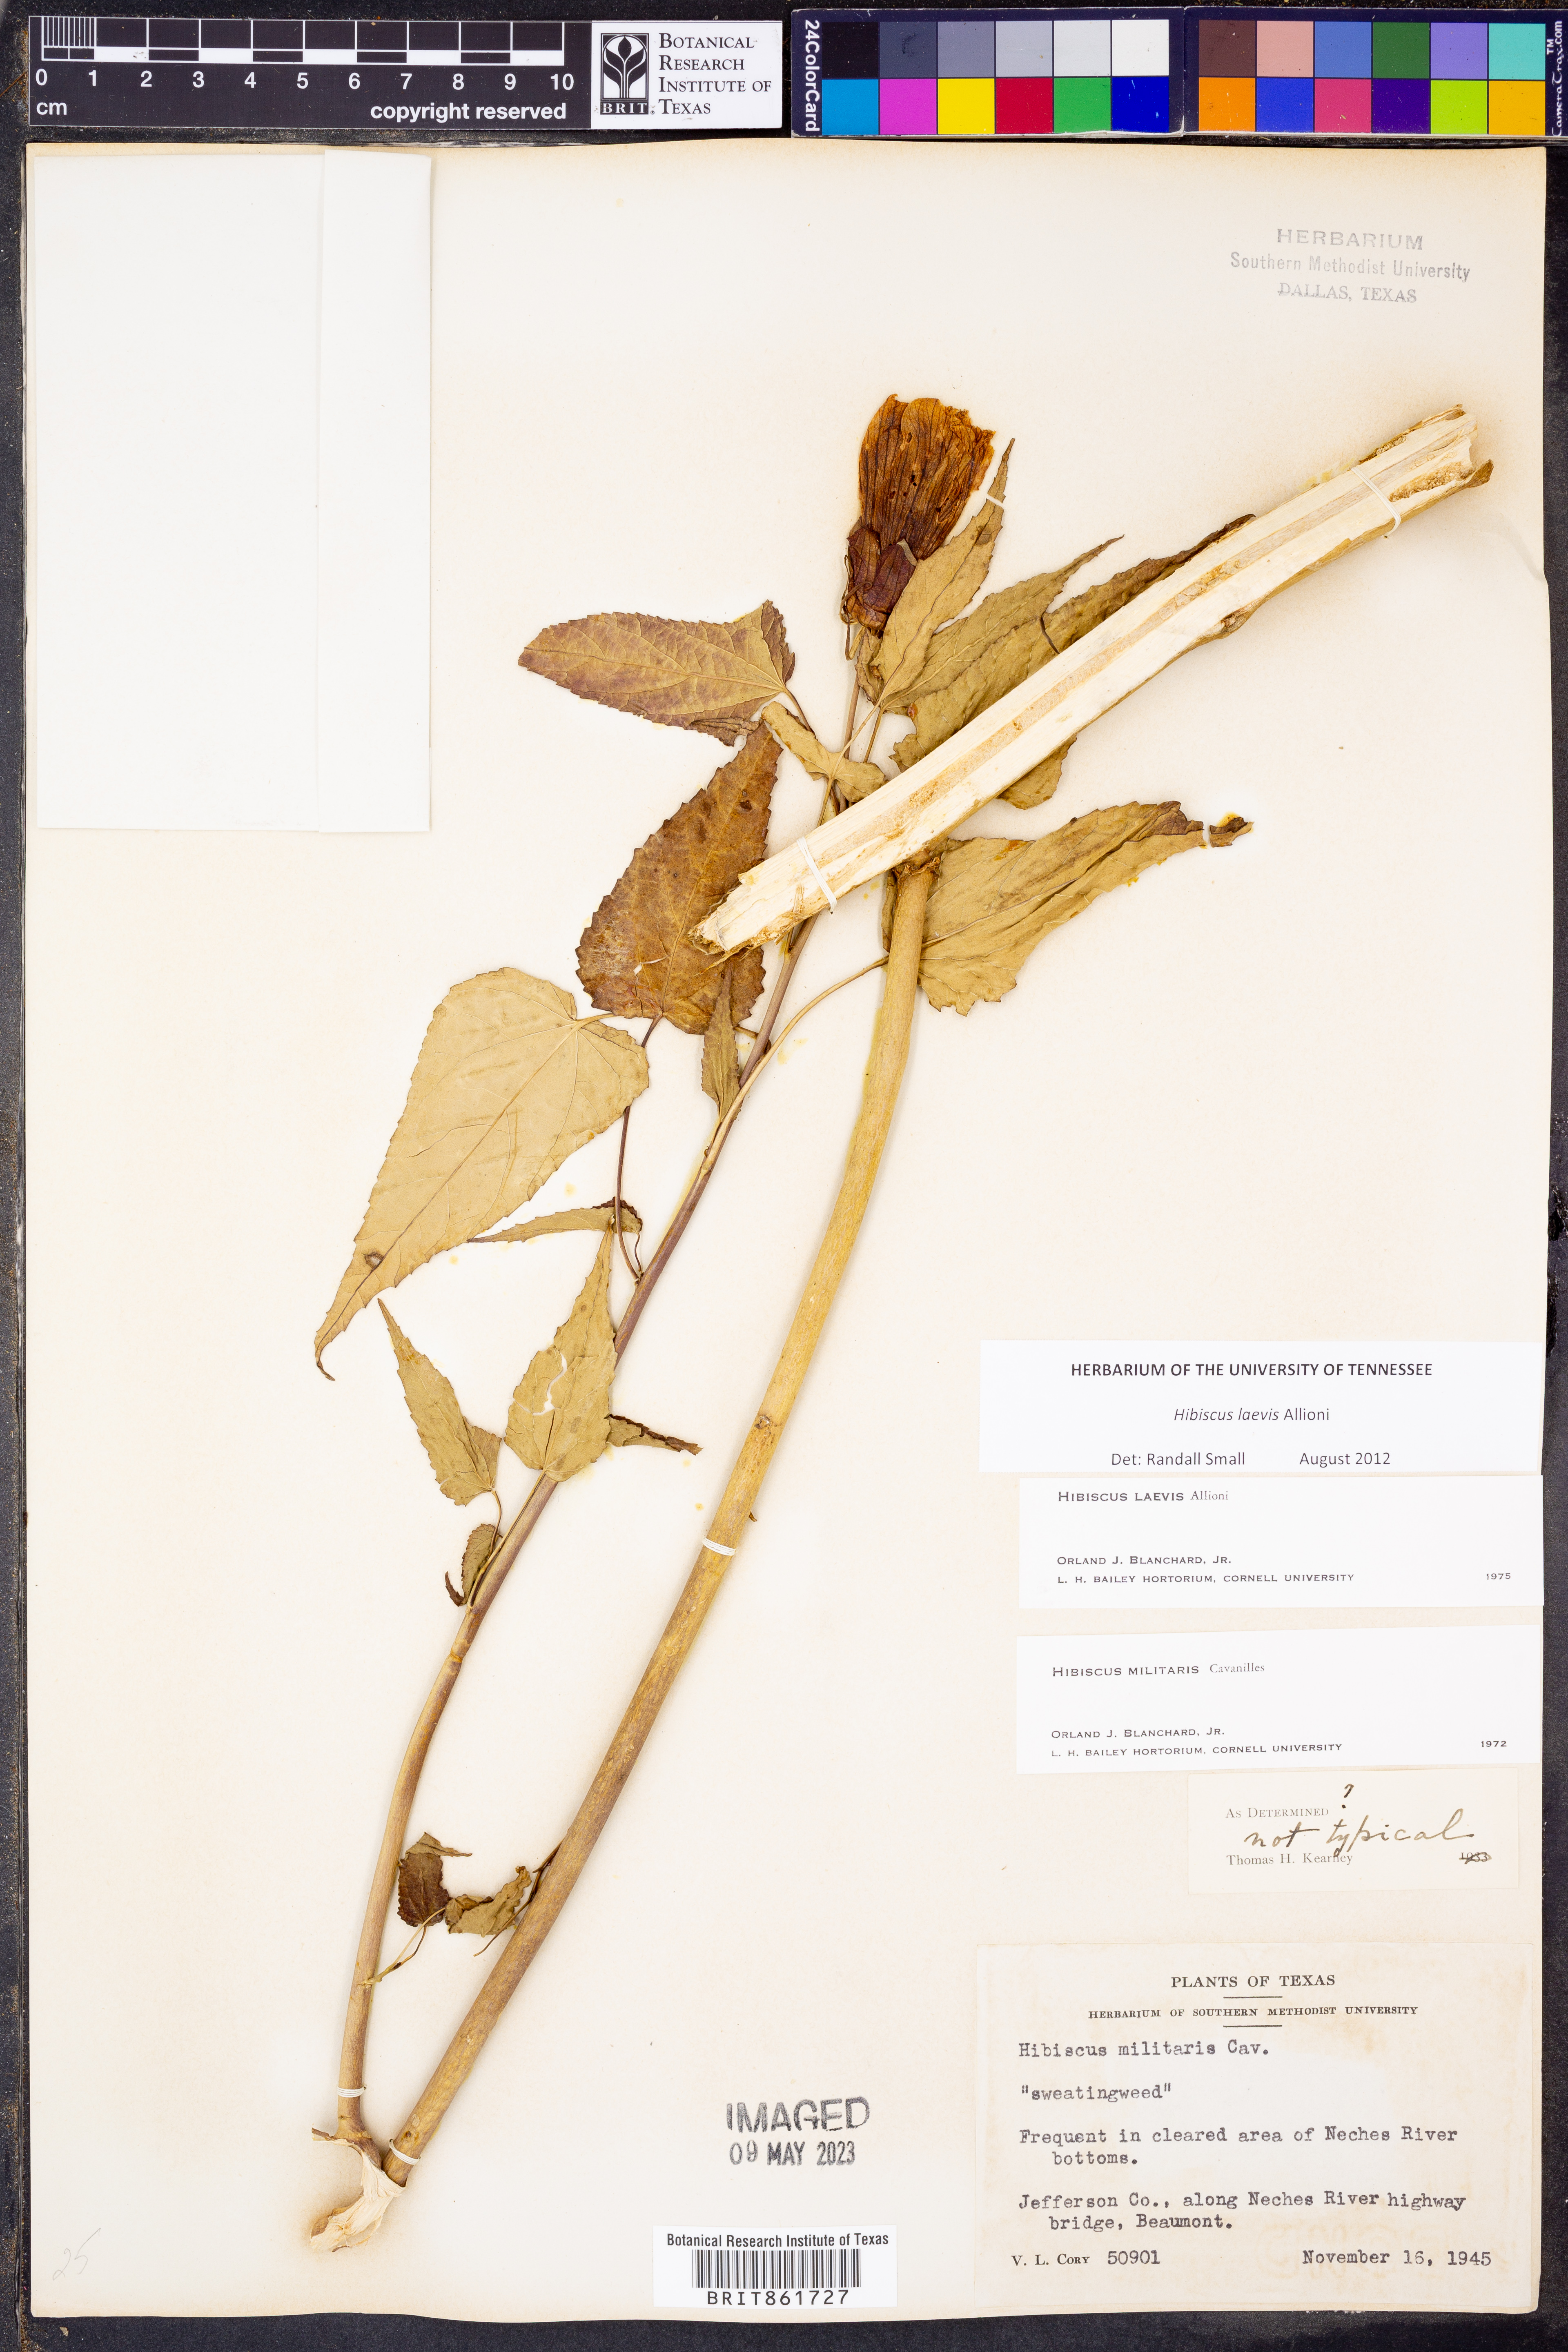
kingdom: Plantae
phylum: Tracheophyta
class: Magnoliopsida
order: Malvales
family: Malvaceae
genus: Hibiscus
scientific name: Hibiscus laevis
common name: Scarlet rose-mallow
